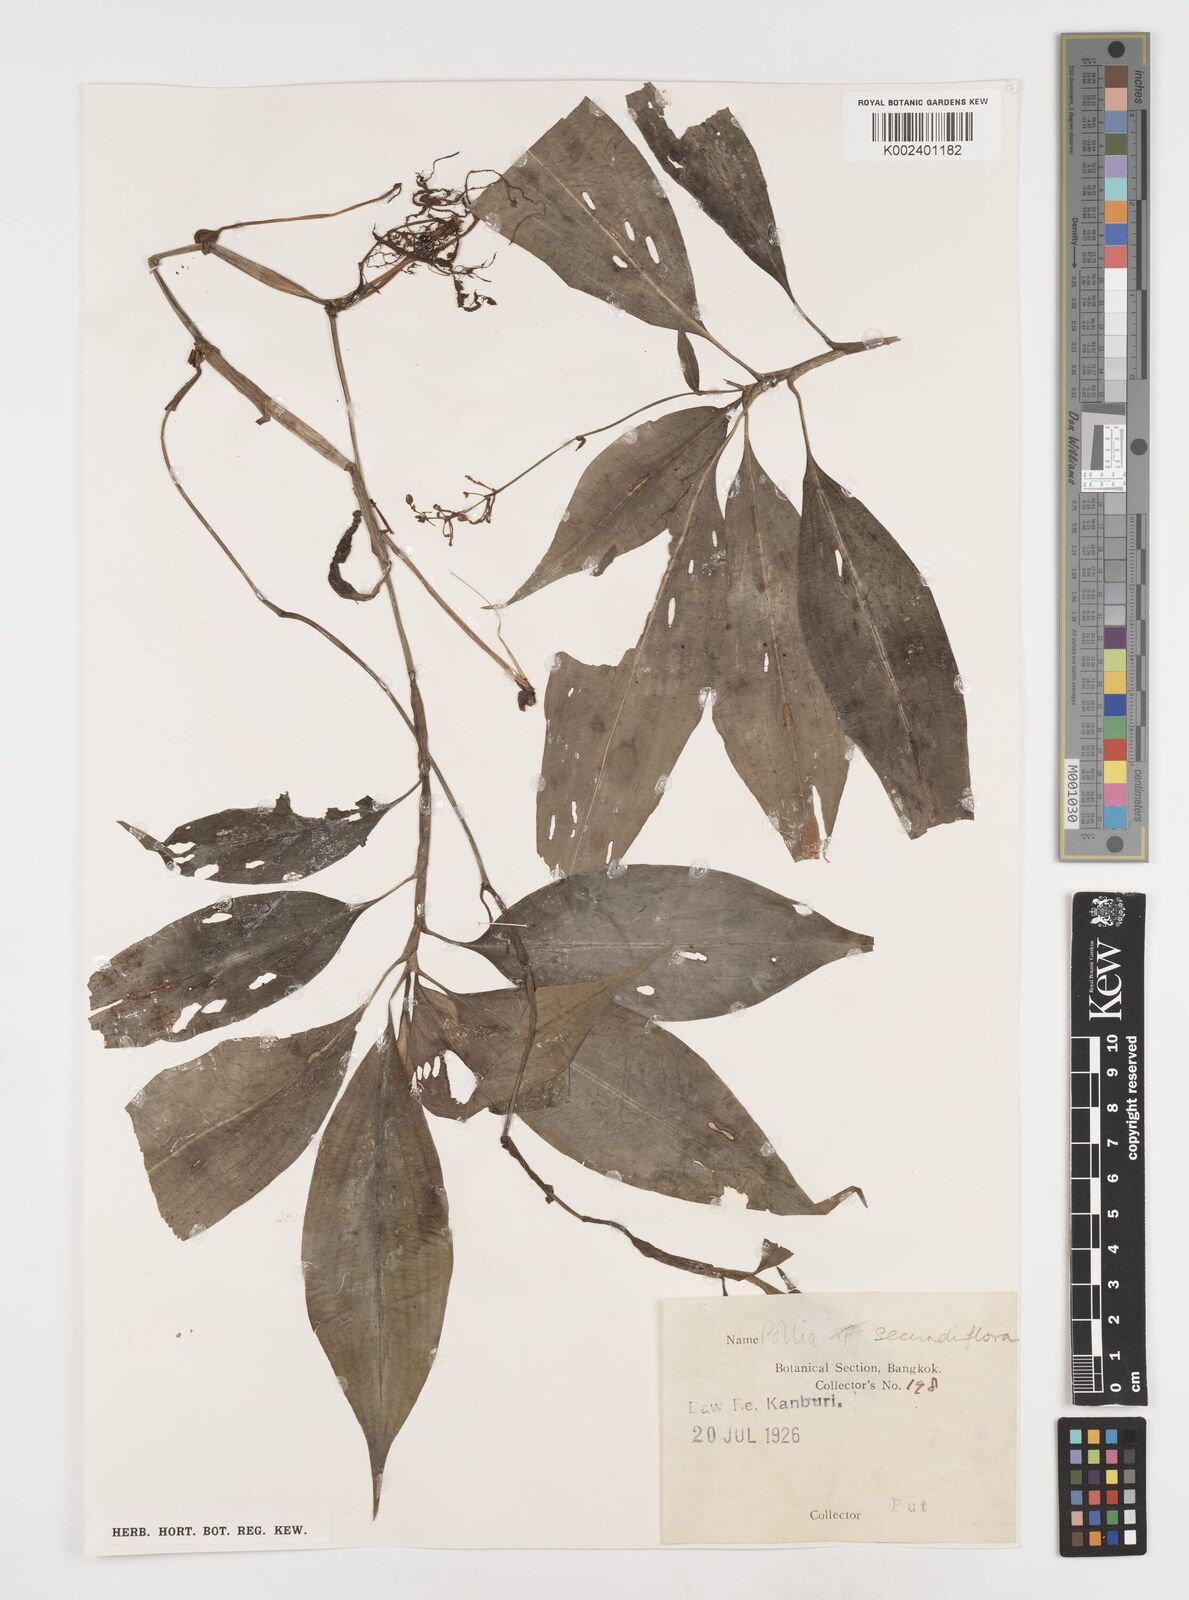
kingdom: Plantae
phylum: Tracheophyta
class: Liliopsida
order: Commelinales
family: Commelinaceae
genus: Pollia
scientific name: Pollia secundiflora
